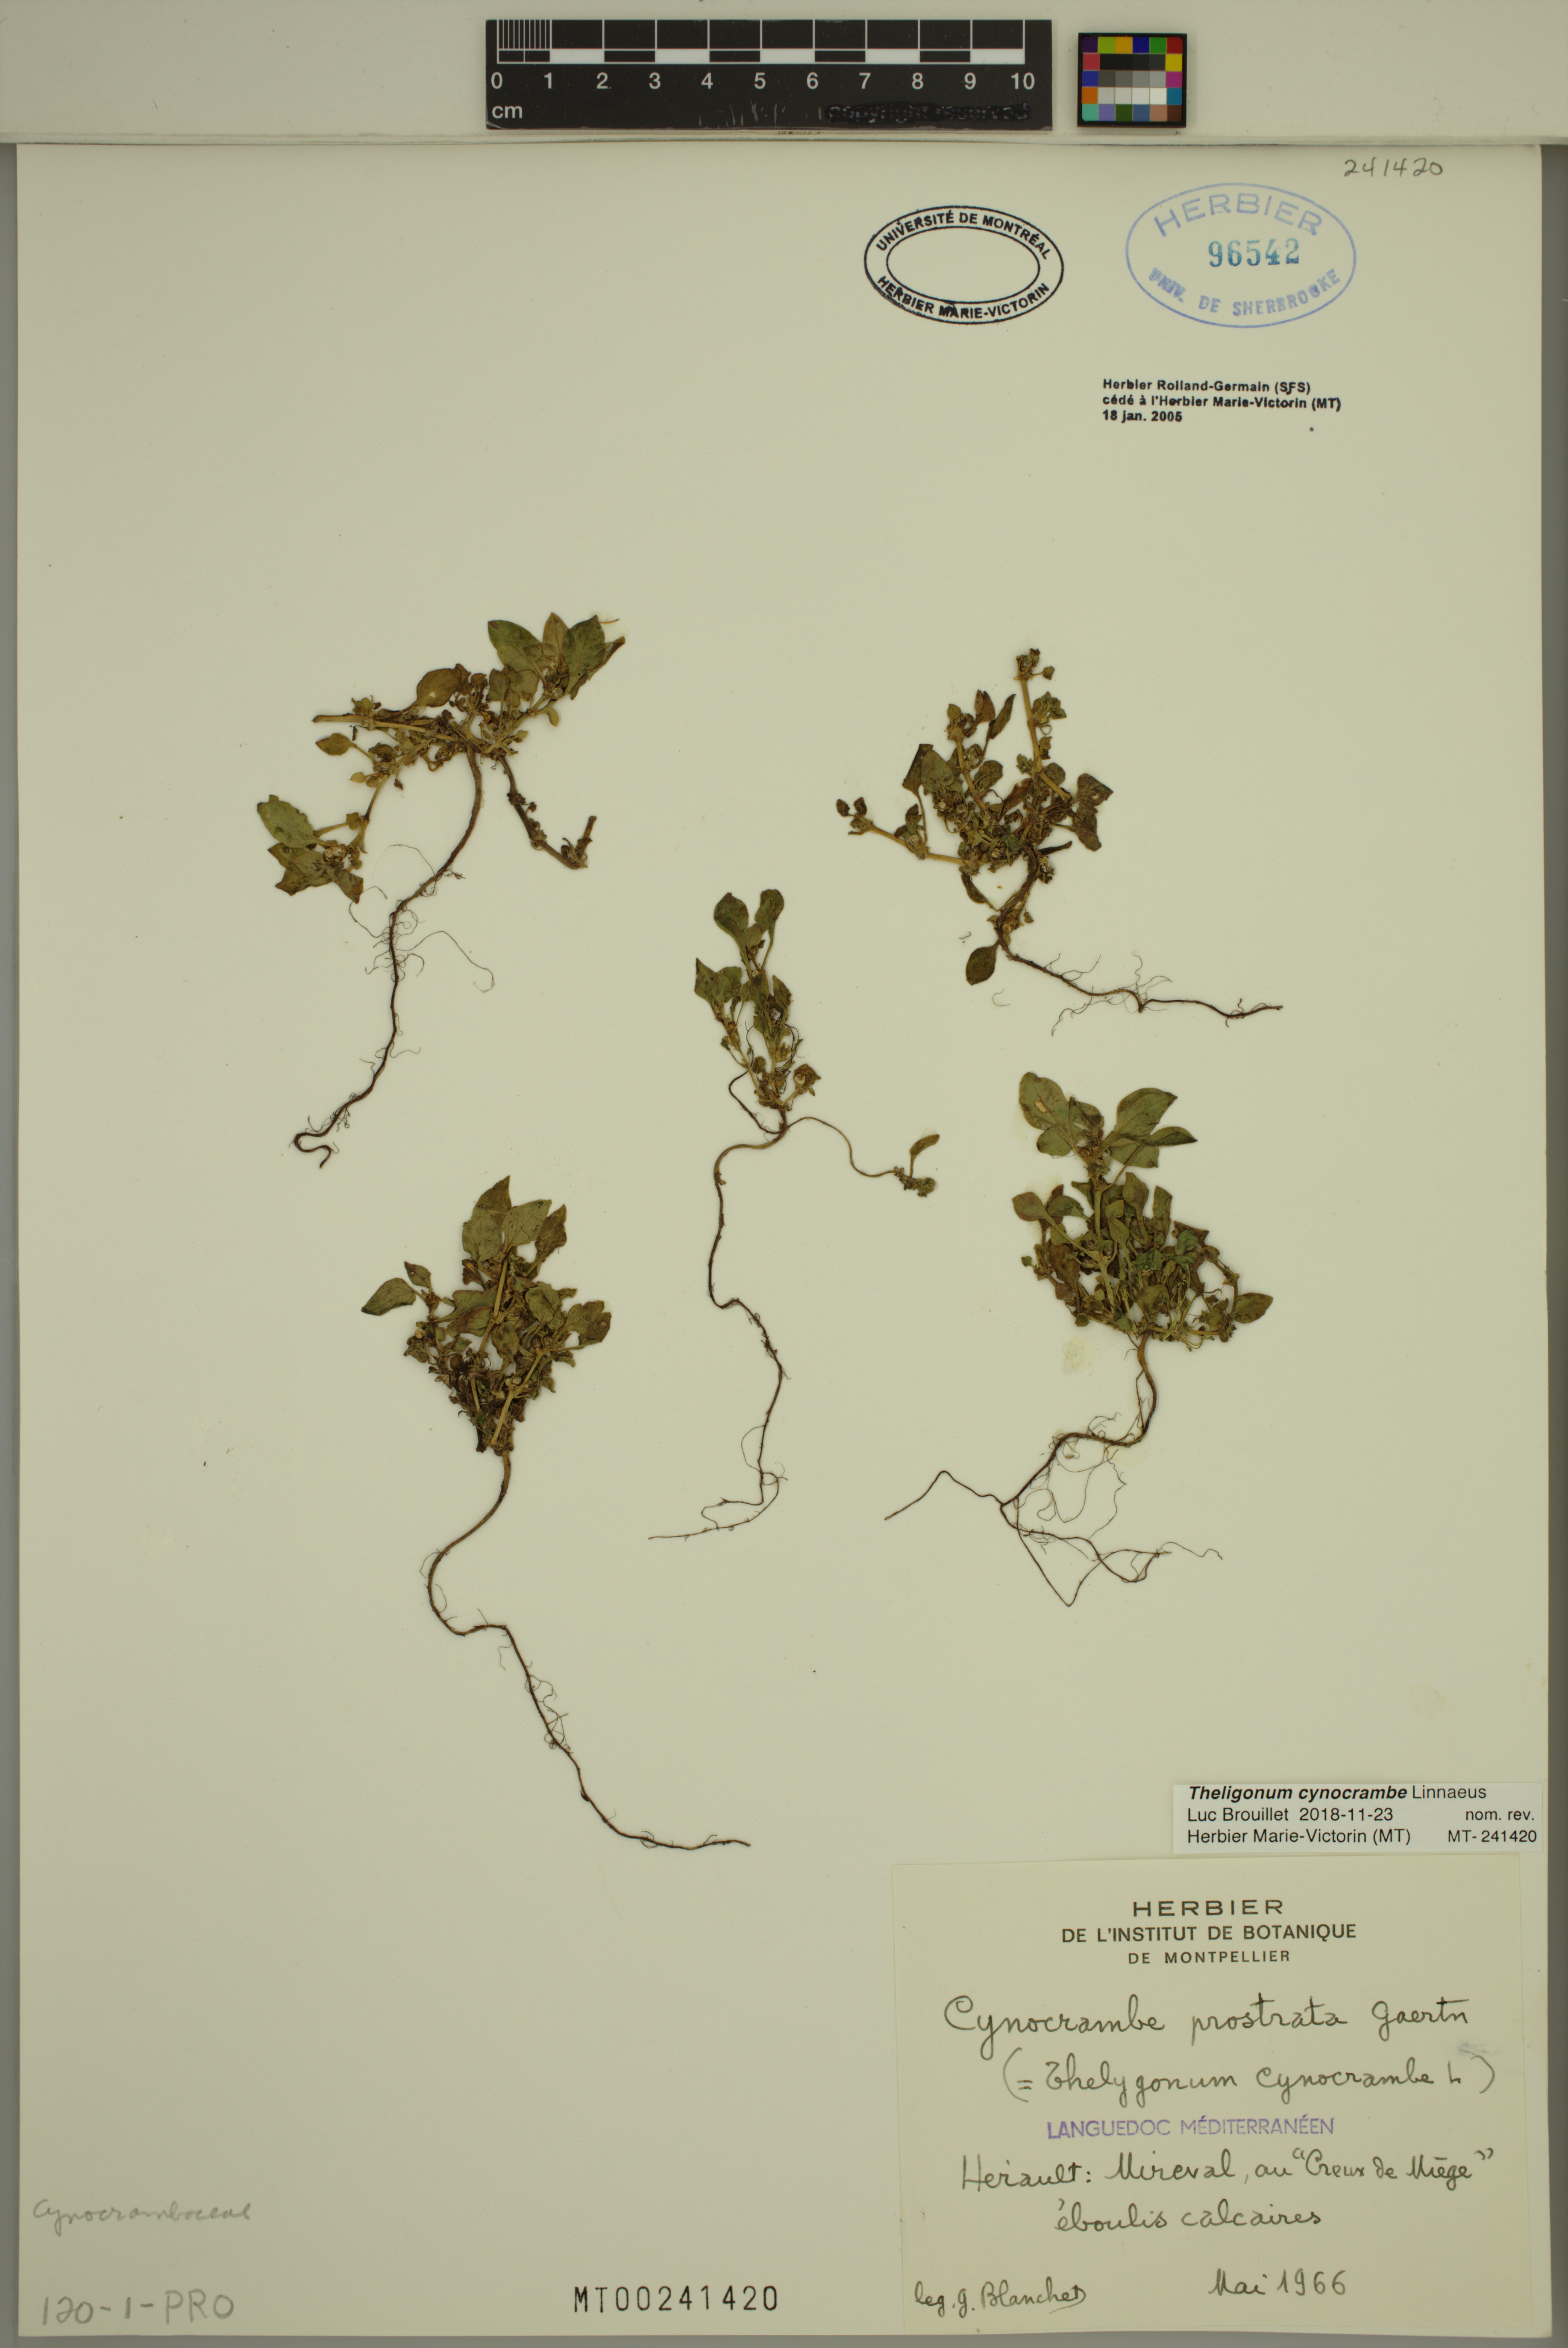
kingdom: Plantae
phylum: Tracheophyta
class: Magnoliopsida
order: Gentianales
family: Rubiaceae
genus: Theligonum
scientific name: Theligonum cynocrambe
